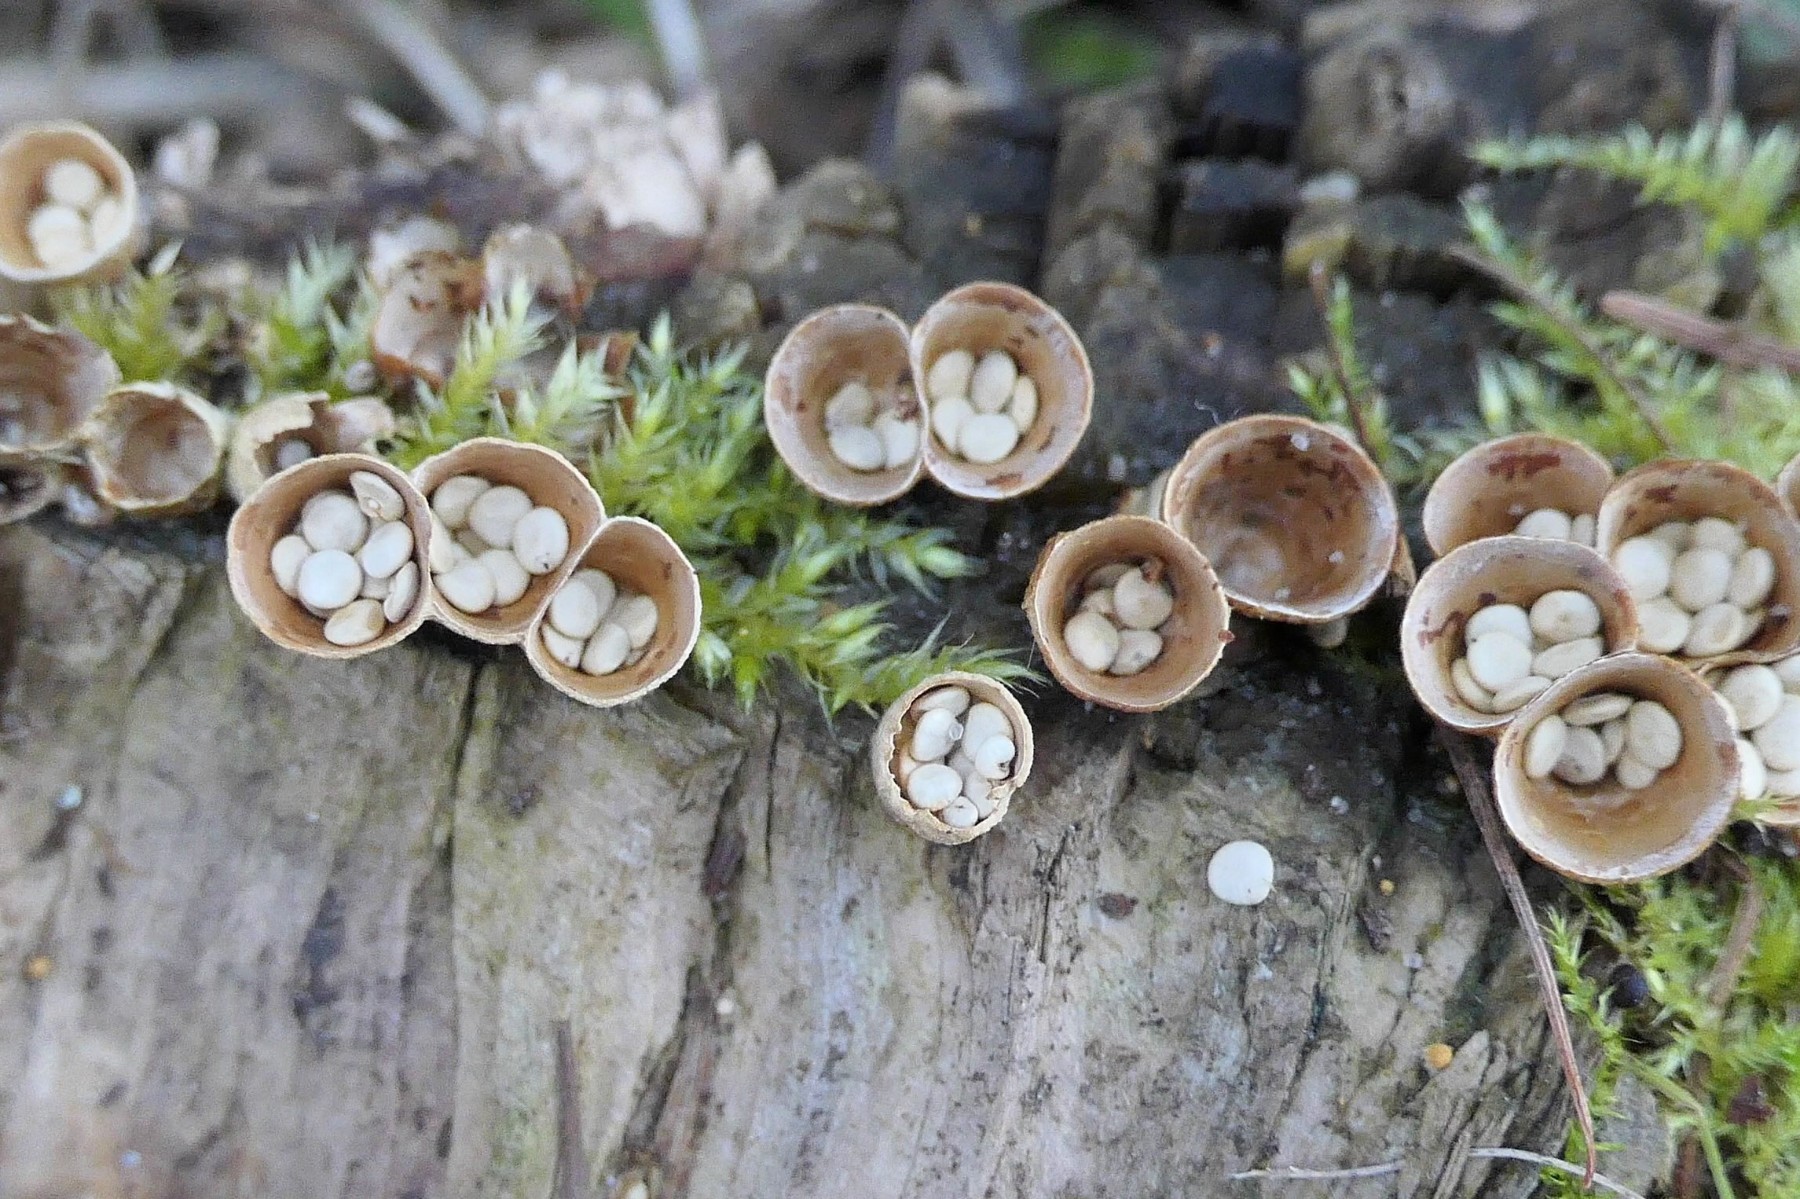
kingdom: Fungi
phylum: Basidiomycota
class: Agaricomycetes
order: Agaricales
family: Nidulariaceae
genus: Crucibulum
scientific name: Crucibulum crucibuliforme
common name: krukkesvamp
